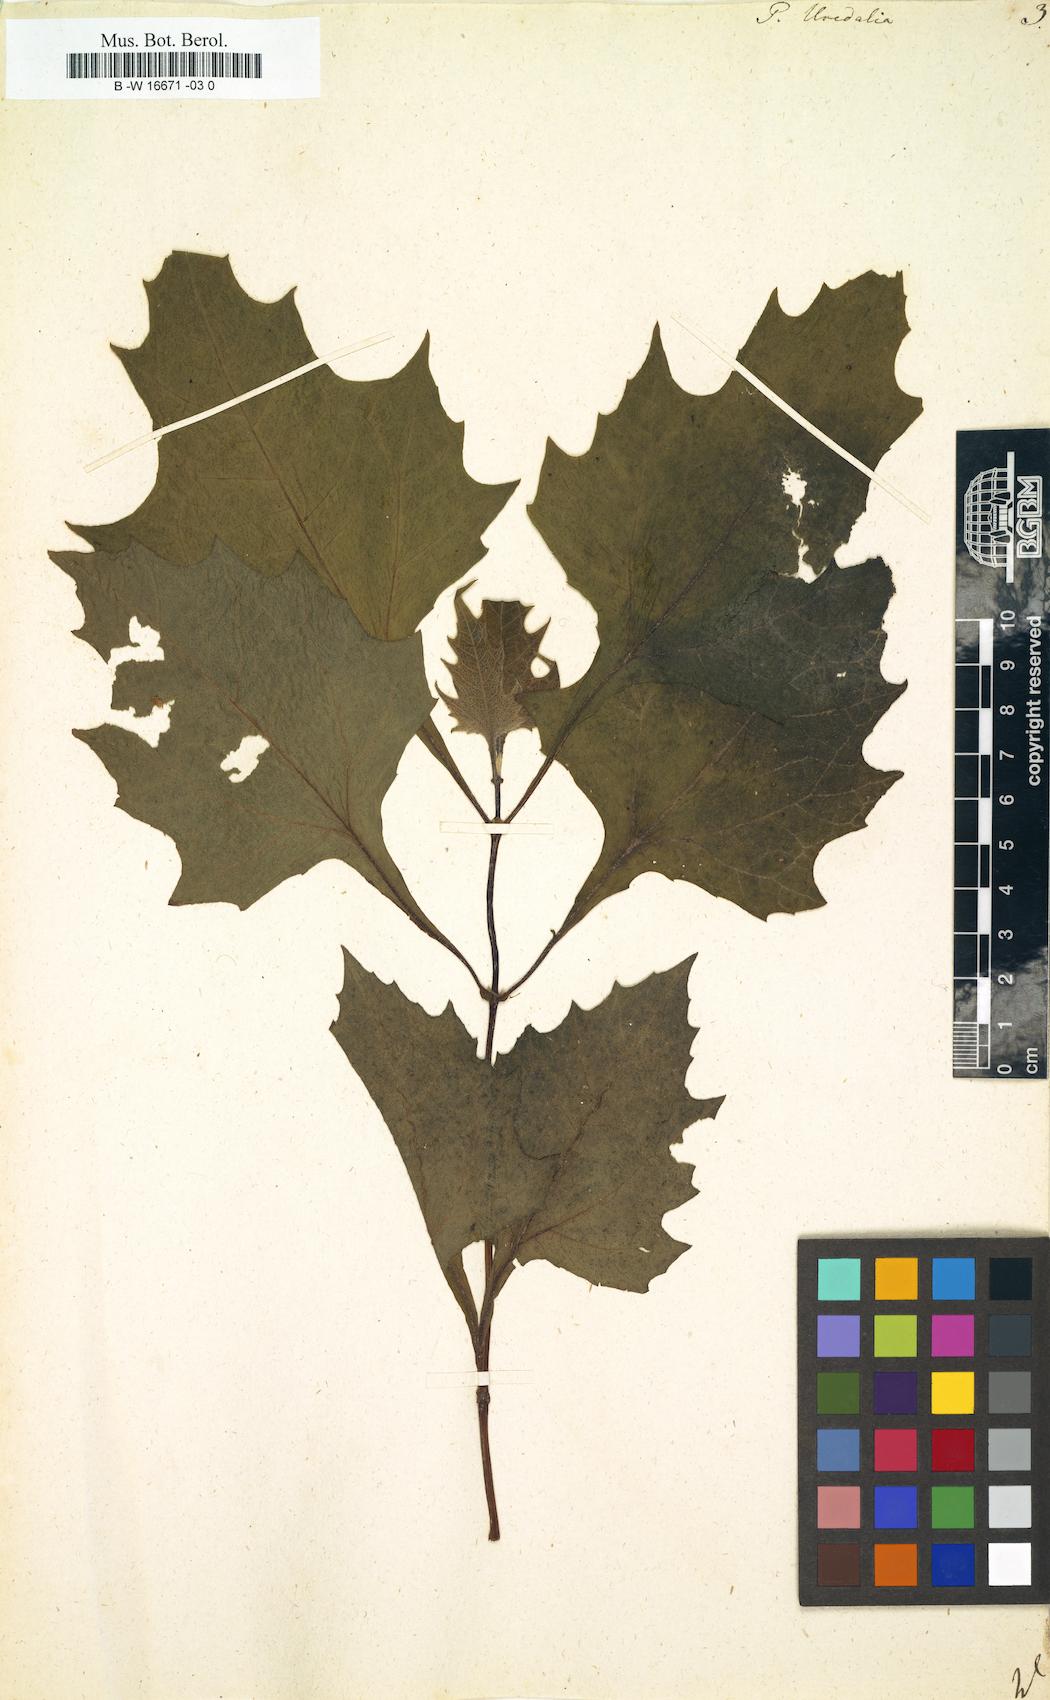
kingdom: Plantae
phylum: Tracheophyta
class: Magnoliopsida
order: Asterales
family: Asteraceae
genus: Smallanthus
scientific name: Smallanthus uvedalia
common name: Bear's-foot
